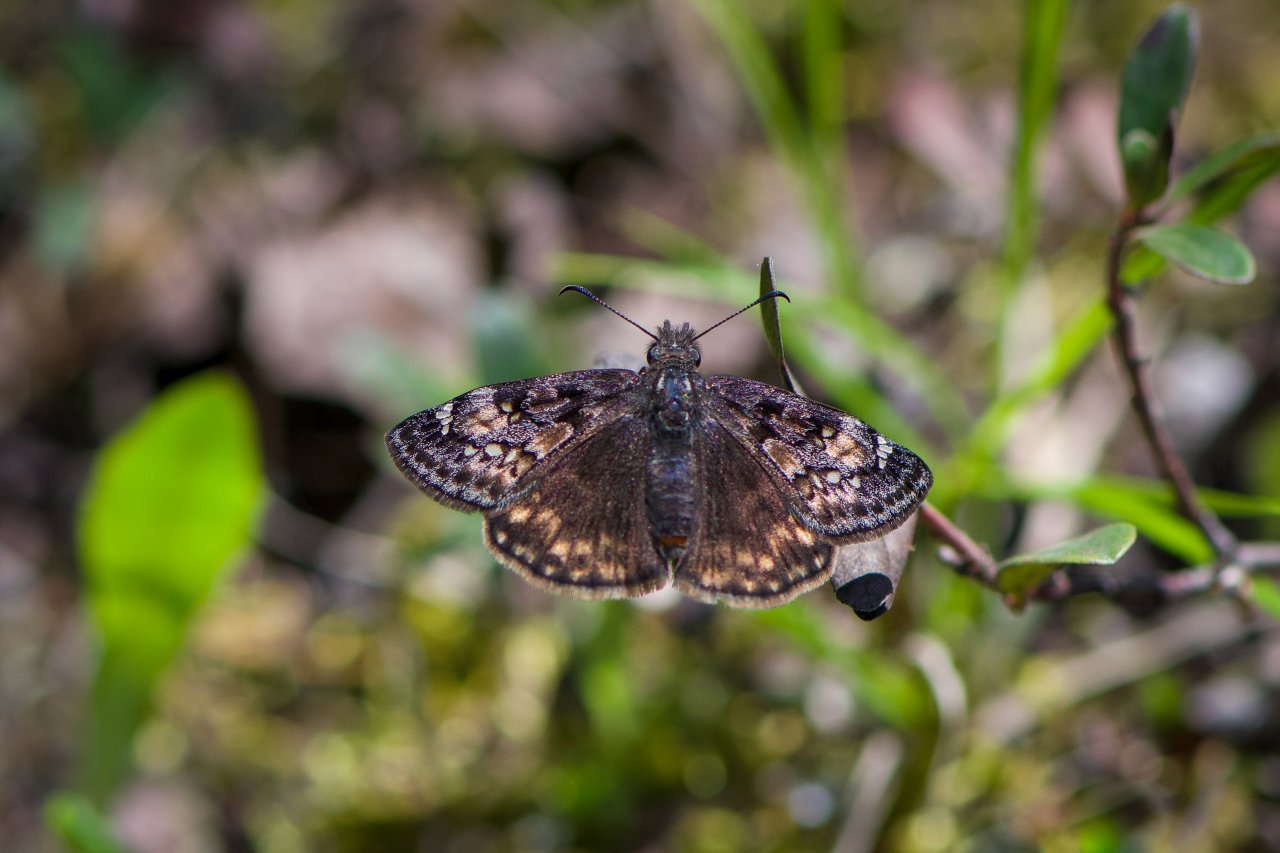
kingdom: Animalia
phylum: Arthropoda
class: Insecta
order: Lepidoptera
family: Hesperiidae
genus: Gesta
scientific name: Gesta
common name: Juvenal's Duskywing
